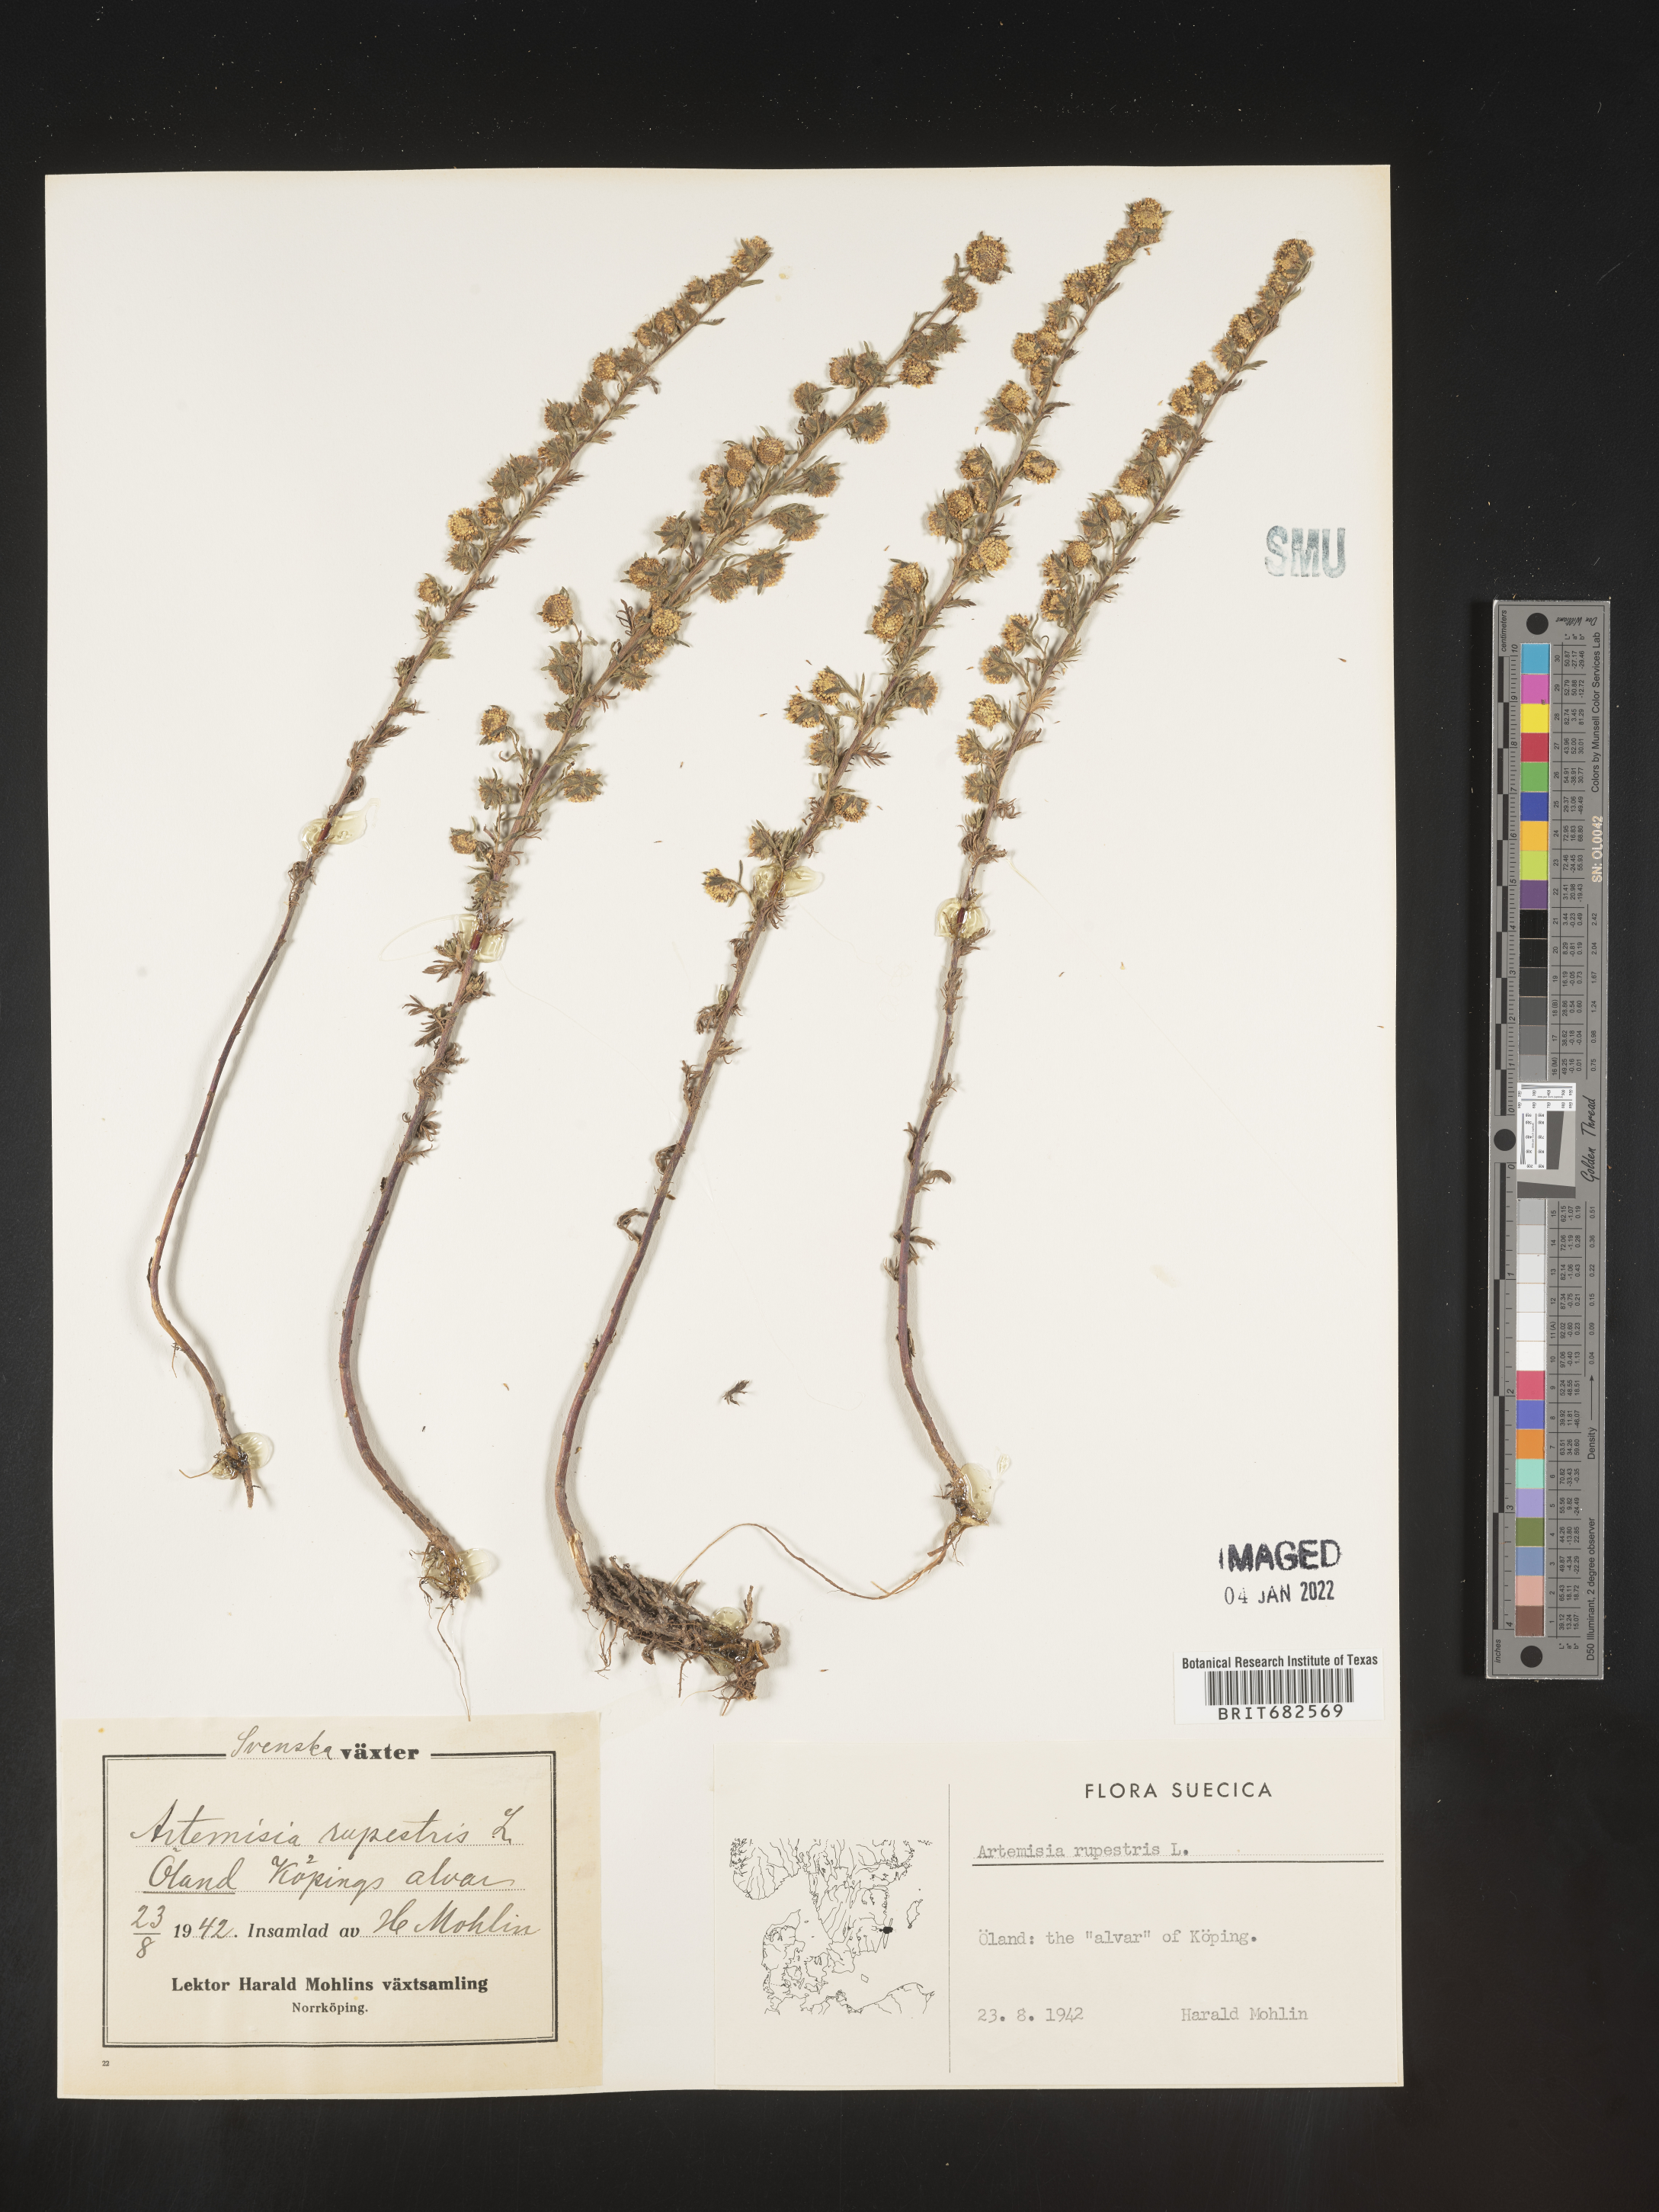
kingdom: Plantae
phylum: Tracheophyta
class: Magnoliopsida
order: Asterales
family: Asteraceae
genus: Artemisia
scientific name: Artemisia
